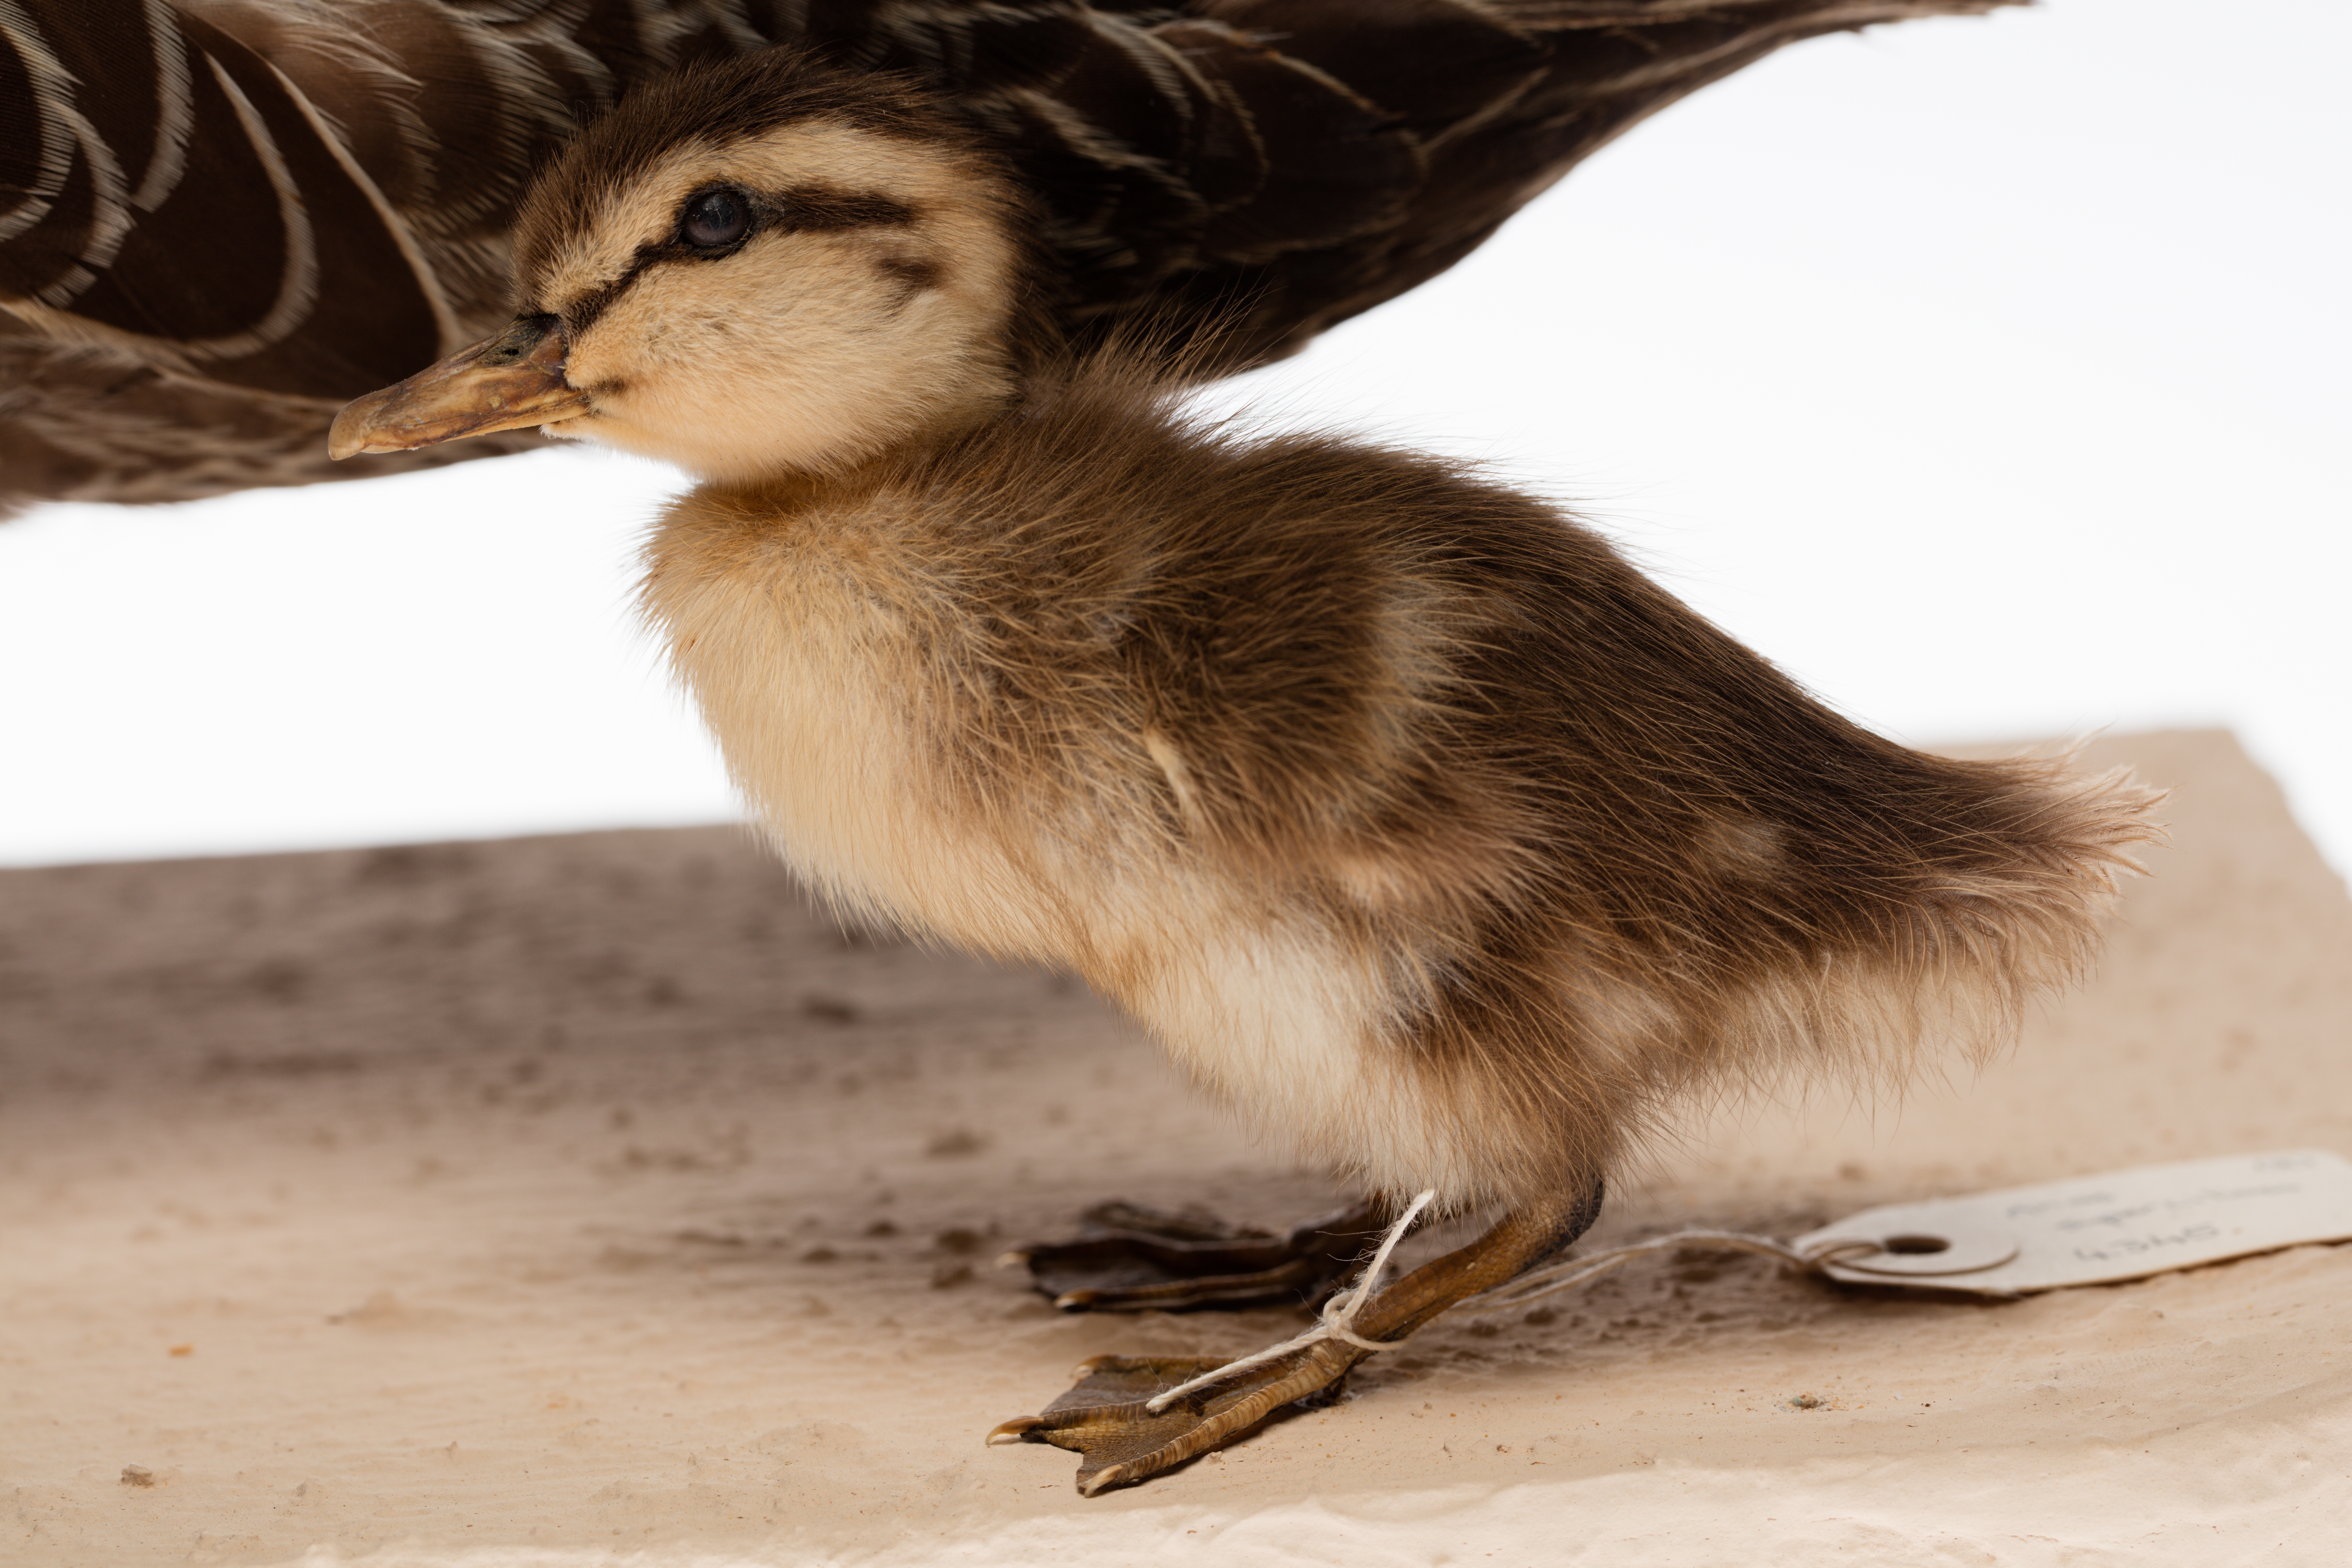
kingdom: Animalia
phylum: Chordata
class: Aves
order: Anseriformes
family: Anatidae
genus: Anas
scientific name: Anas superciliosa
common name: Pacific black duck
